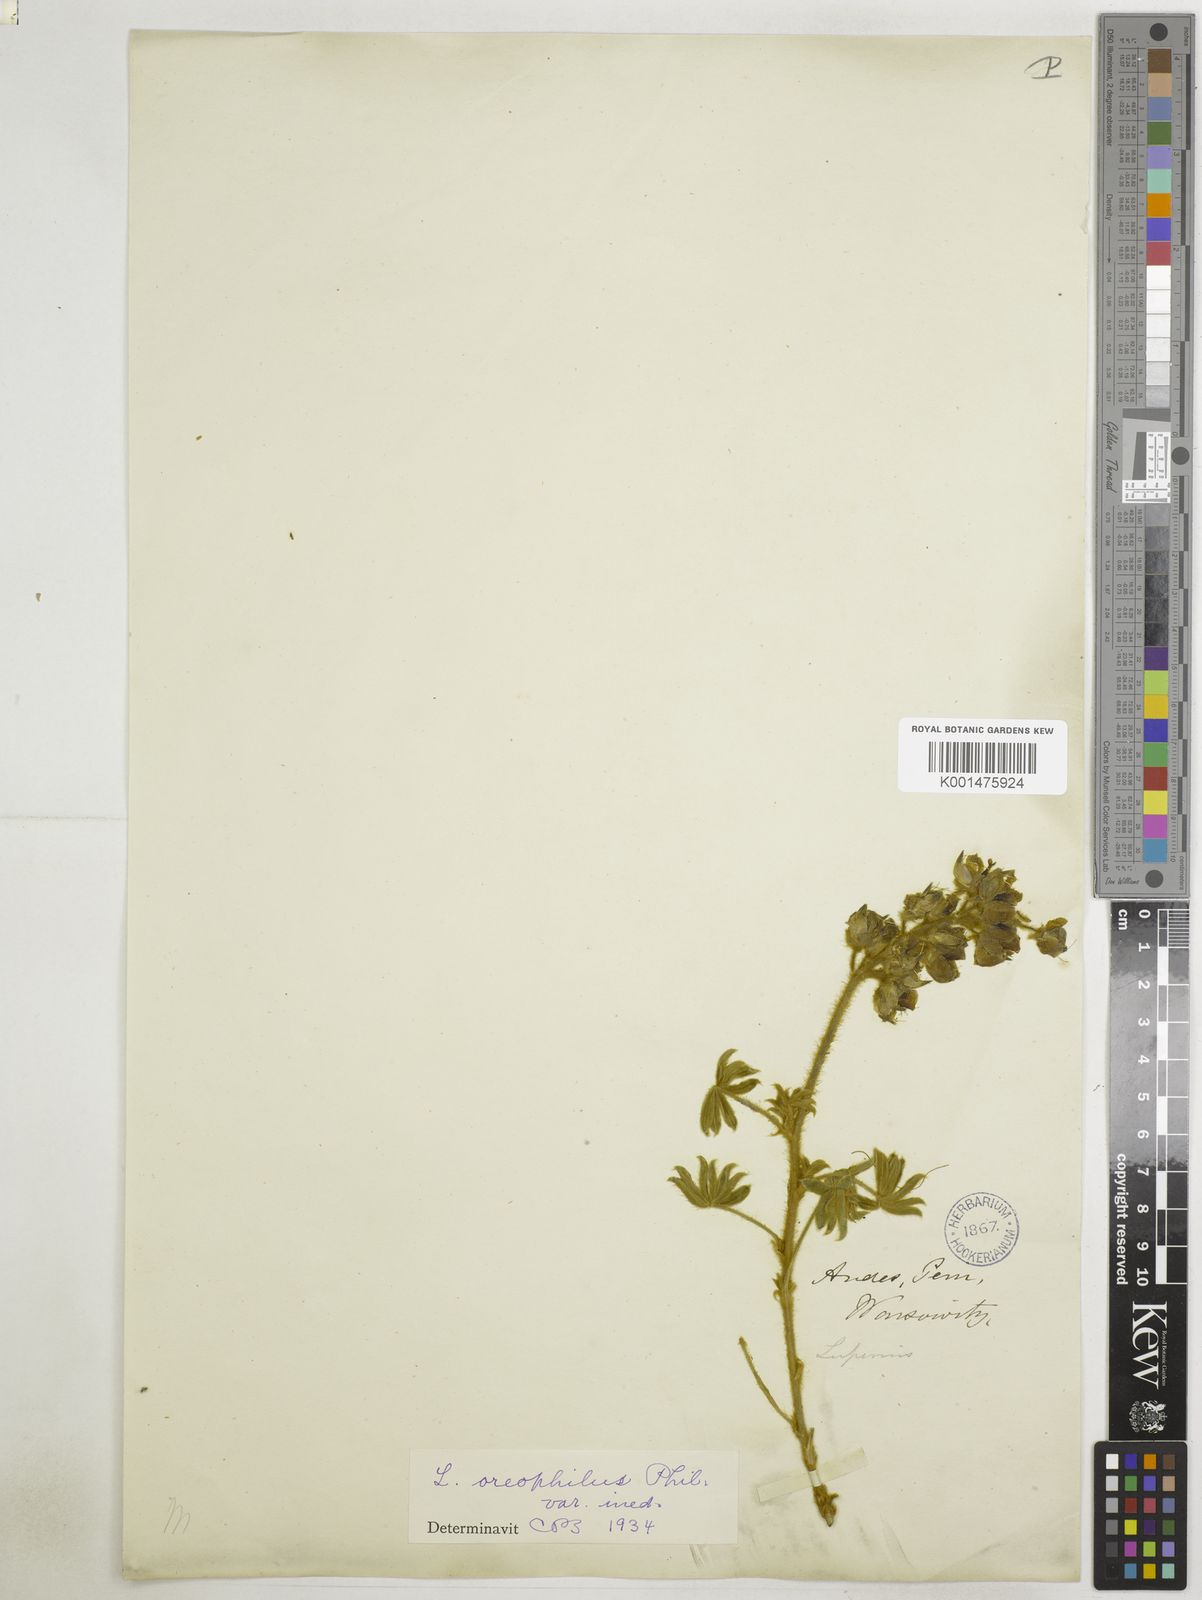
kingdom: Plantae
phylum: Tracheophyta
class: Magnoliopsida
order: Fabales
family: Fabaceae
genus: Lupinus
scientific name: Lupinus oreophilus
